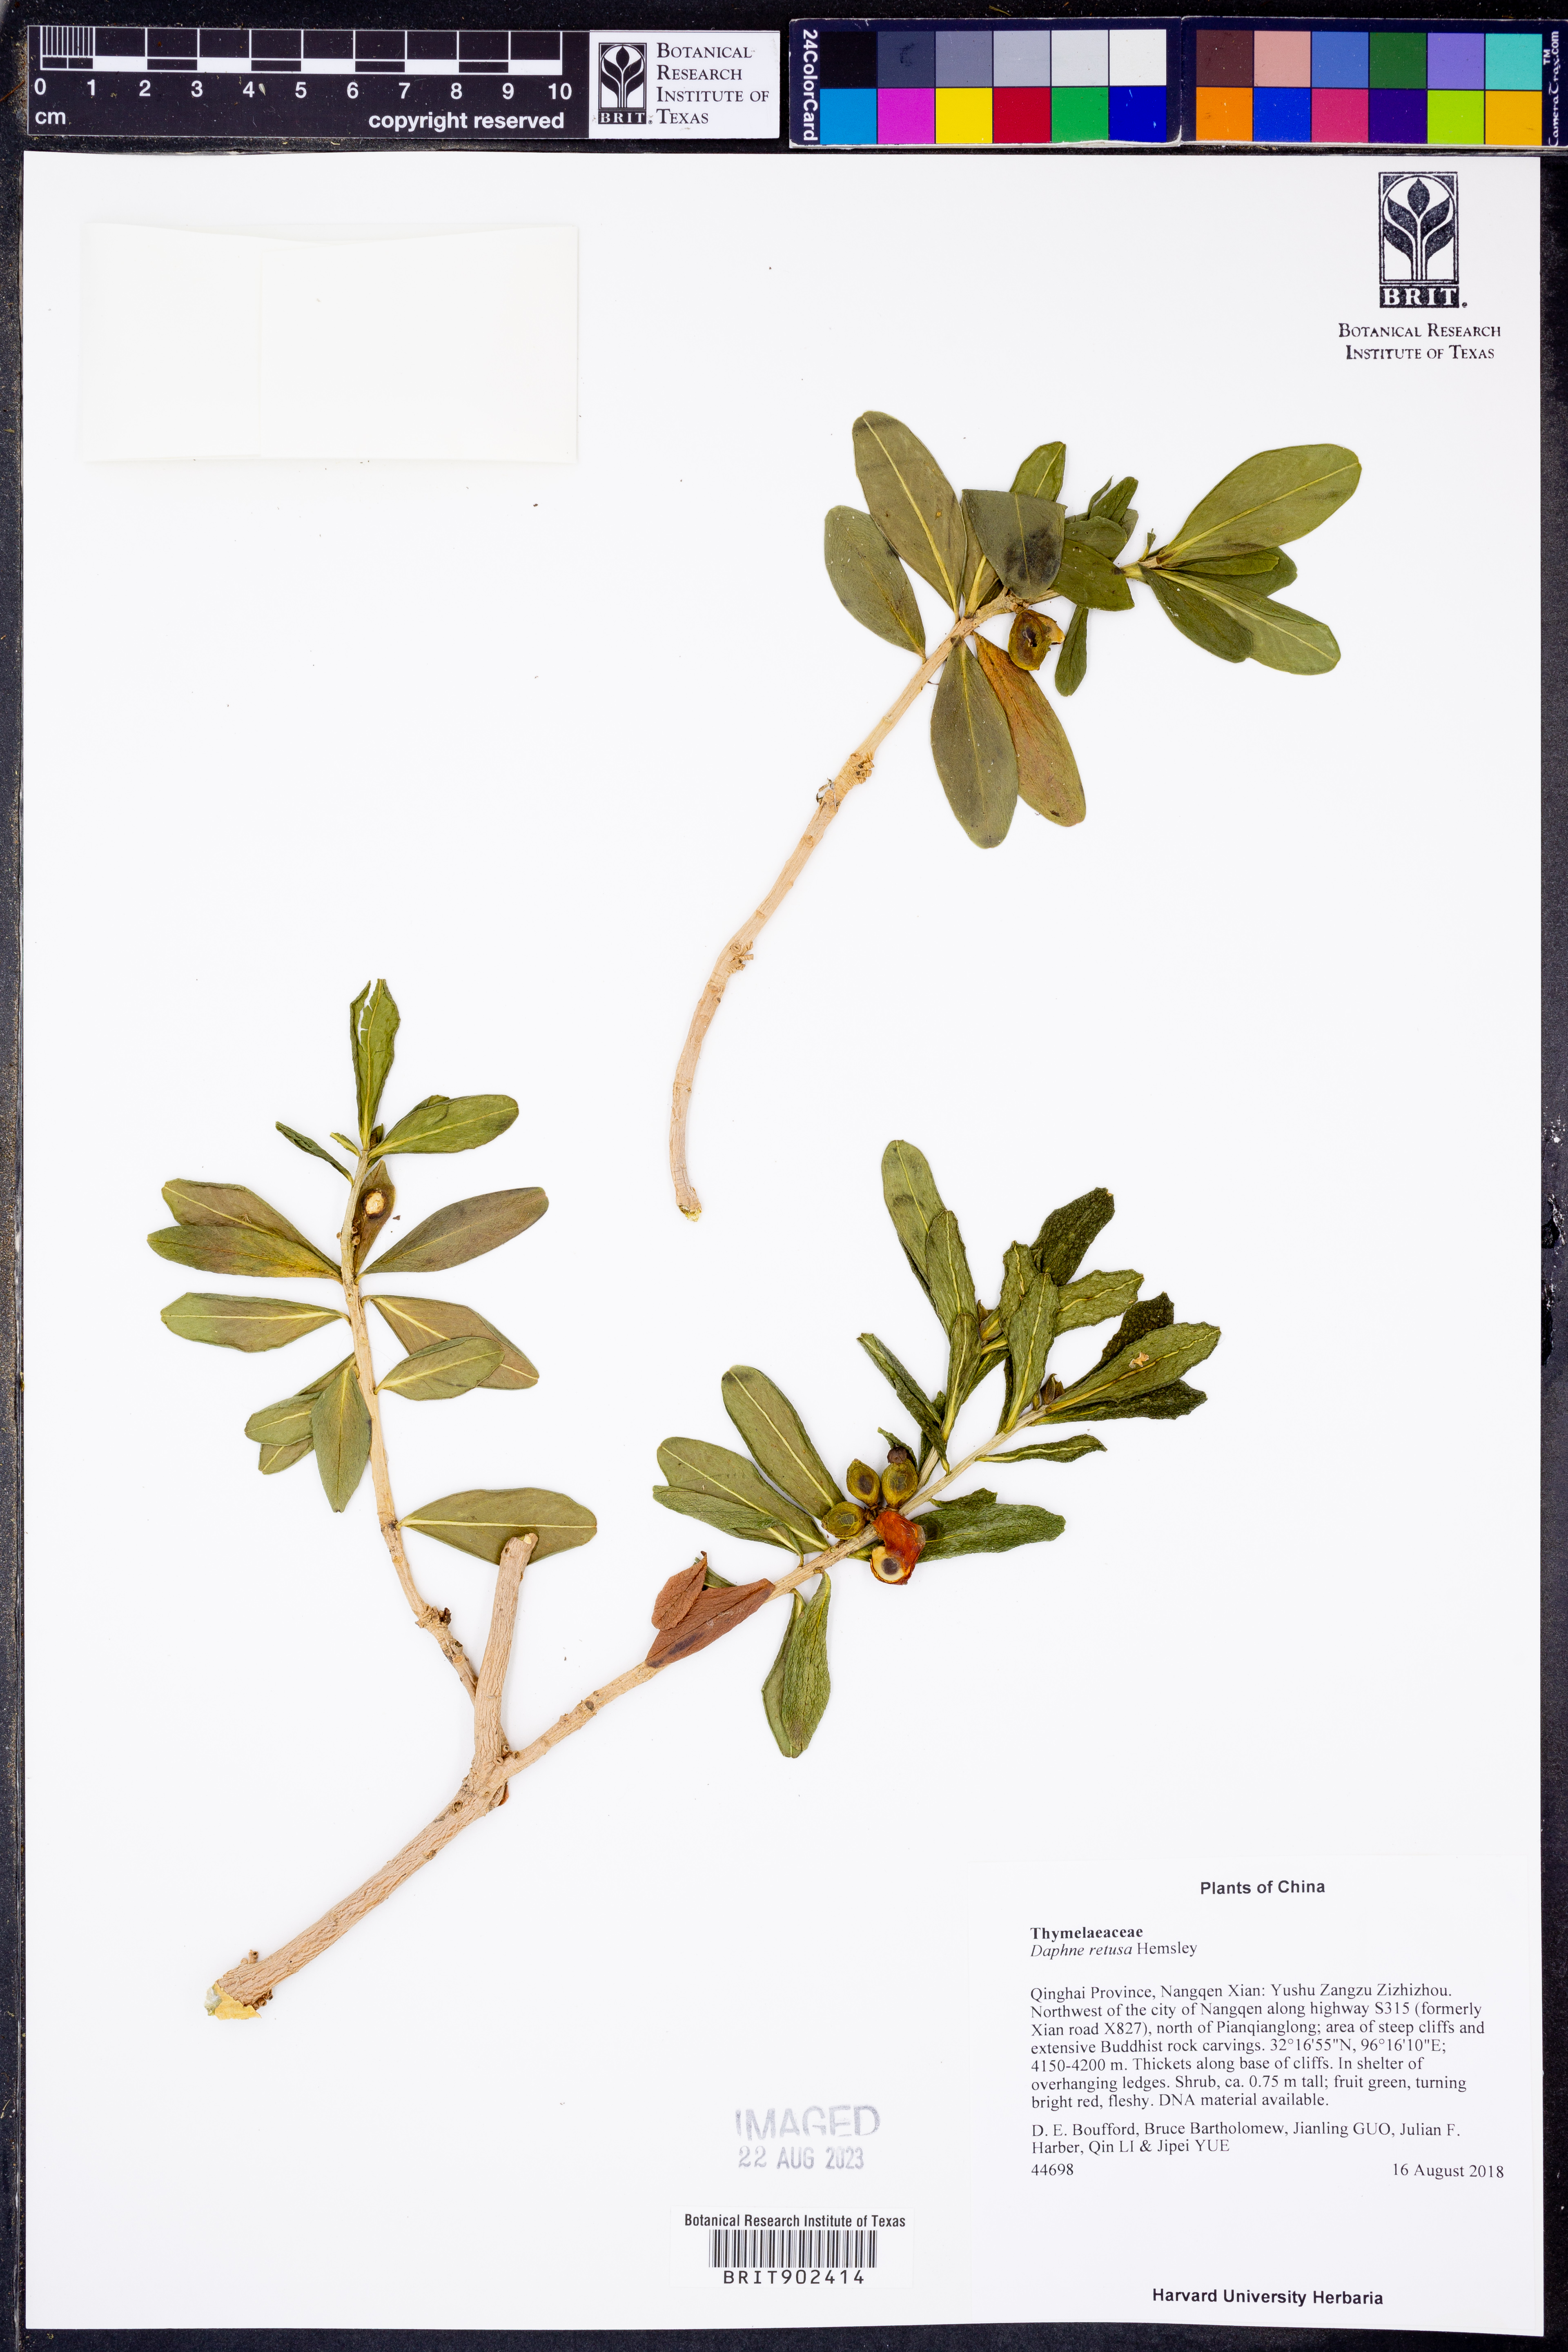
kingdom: Plantae
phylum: Tracheophyta
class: Magnoliopsida
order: Malvales
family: Thymelaeaceae
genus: Daphne
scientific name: Daphne
